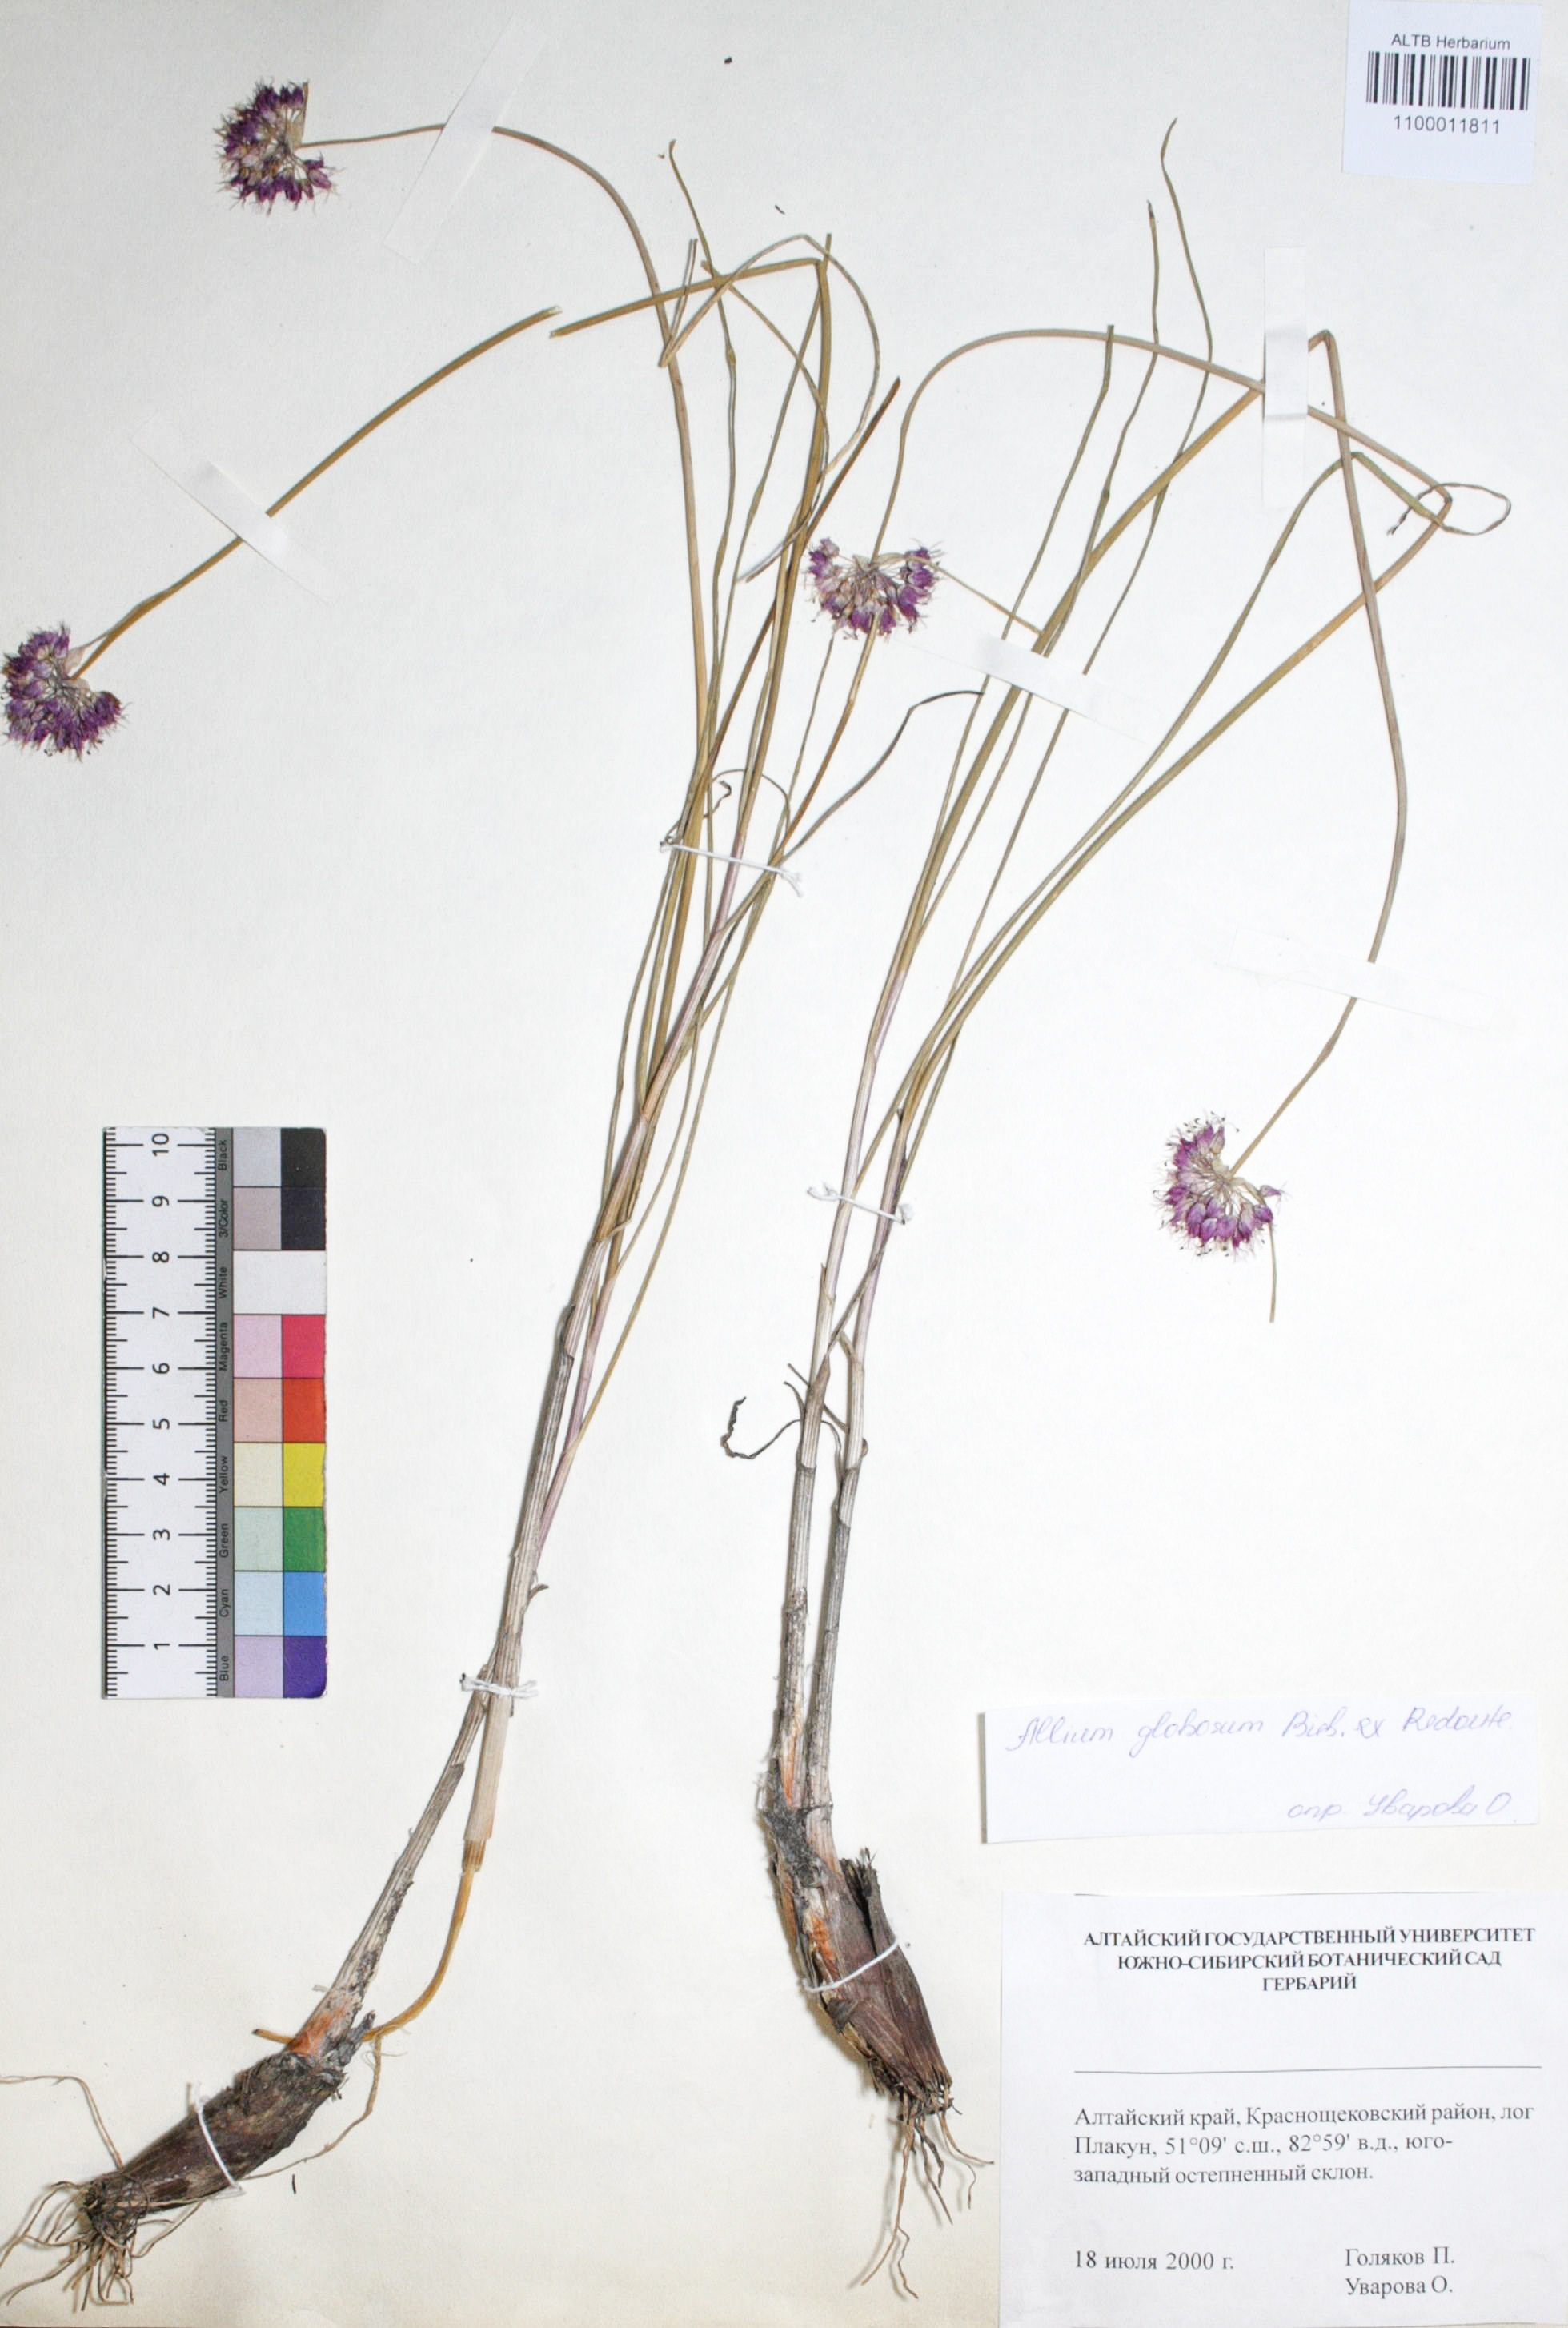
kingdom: Plantae
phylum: Tracheophyta
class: Liliopsida
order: Asparagales
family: Amaryllidaceae
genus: Allium
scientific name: Allium saxatile
